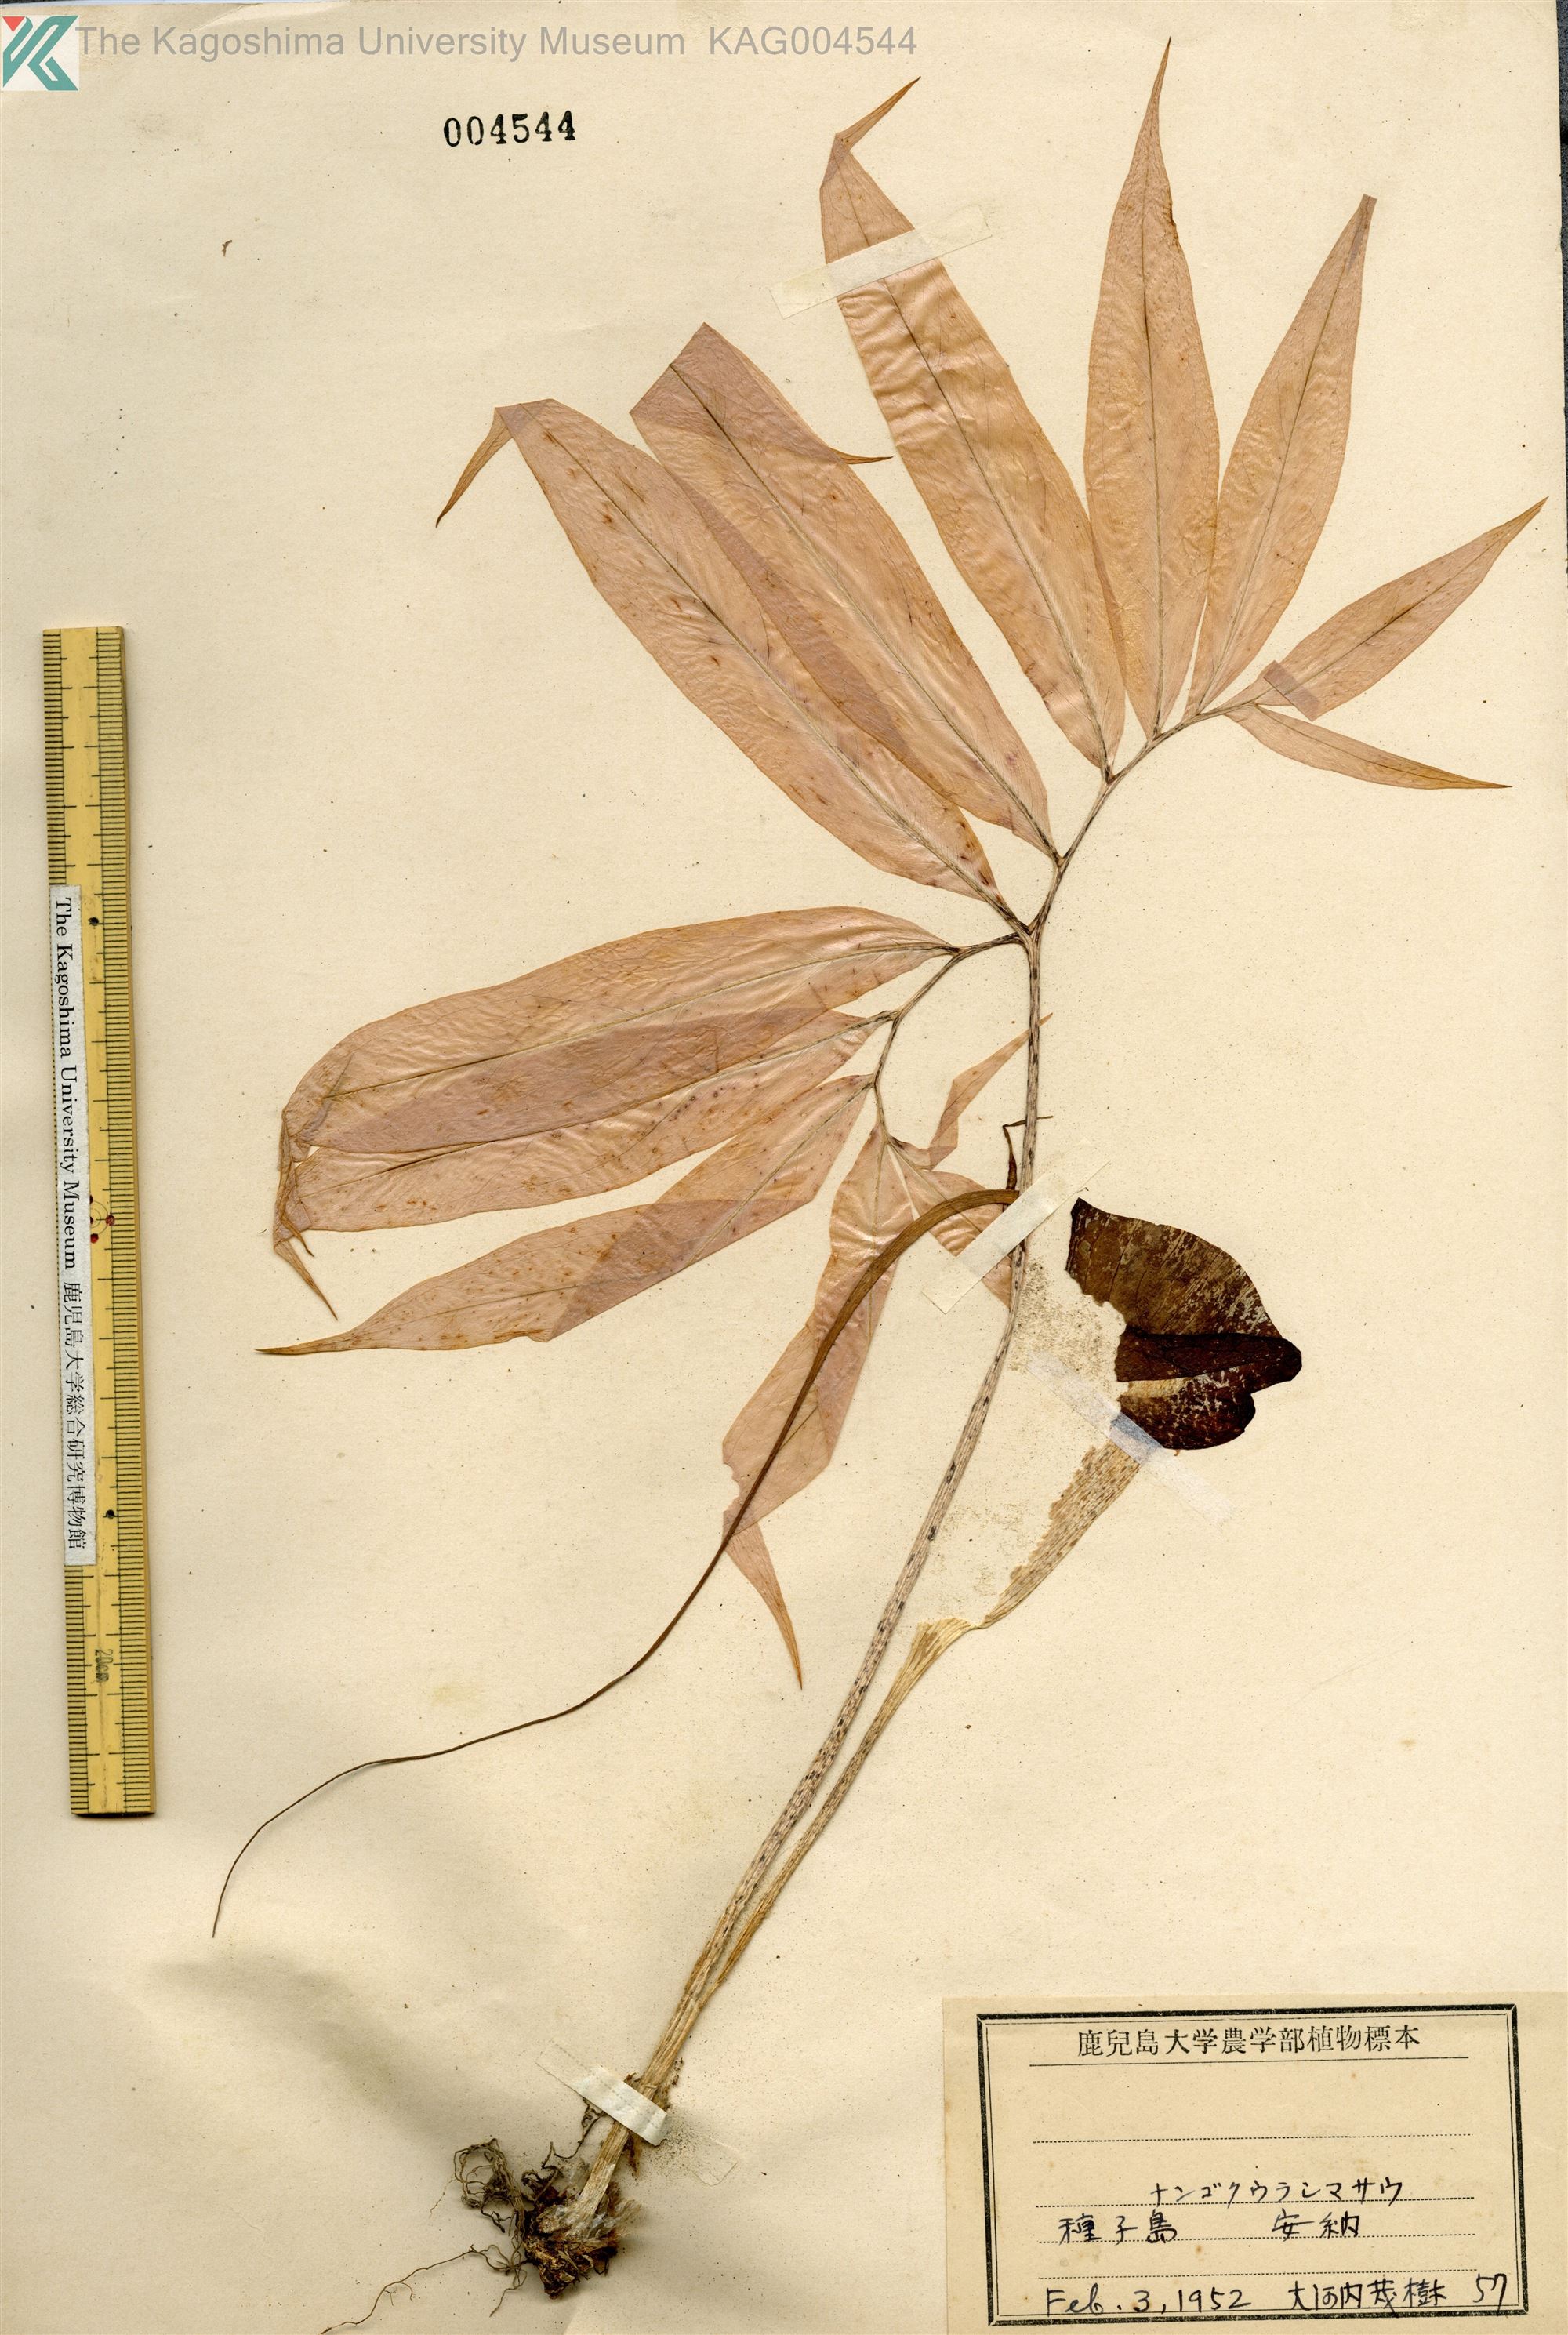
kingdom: Plantae
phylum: Tracheophyta
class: Liliopsida
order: Alismatales
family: Araceae
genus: Arisaema
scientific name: Arisaema thunbergii
